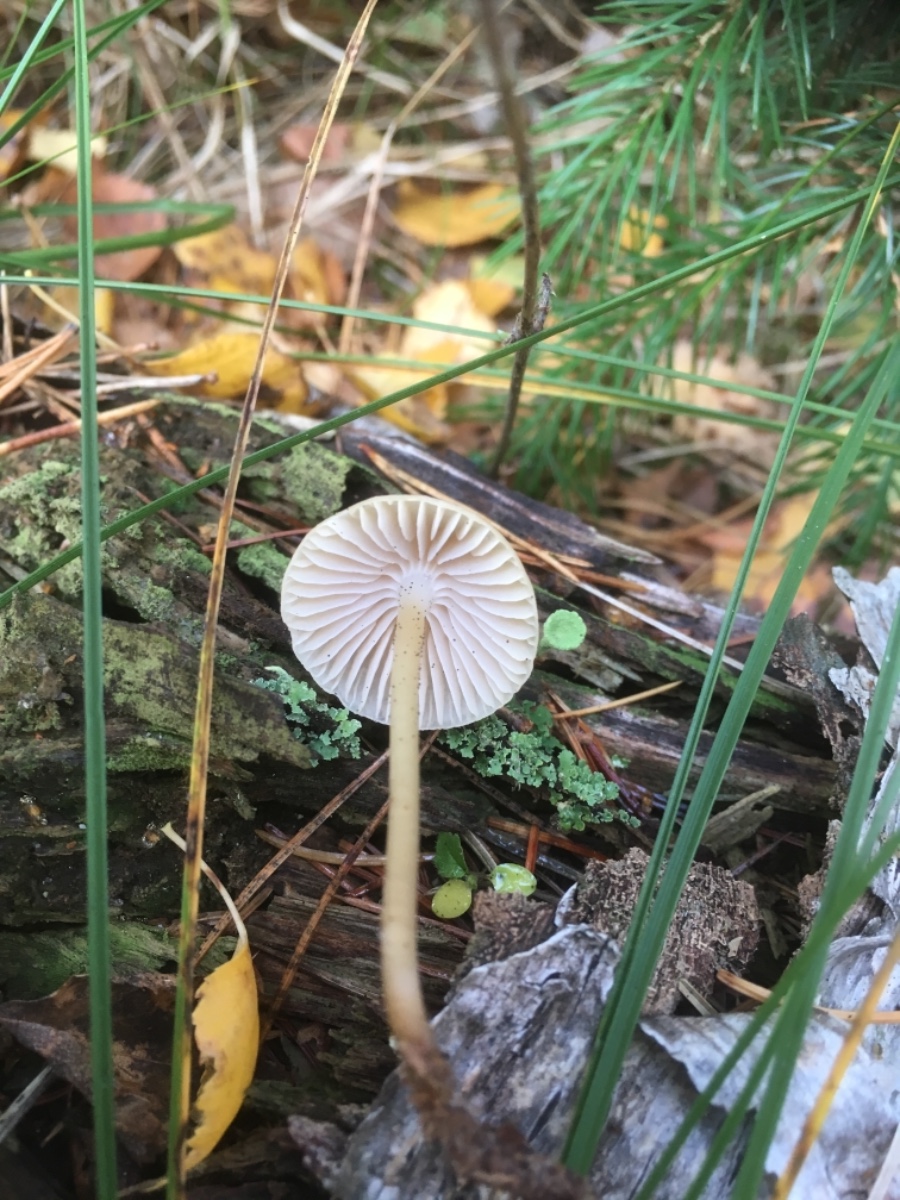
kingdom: Fungi
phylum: Basidiomycota
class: Agaricomycetes
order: Agaricales
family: Mycenaceae
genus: Mycena
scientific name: Mycena galericulata
